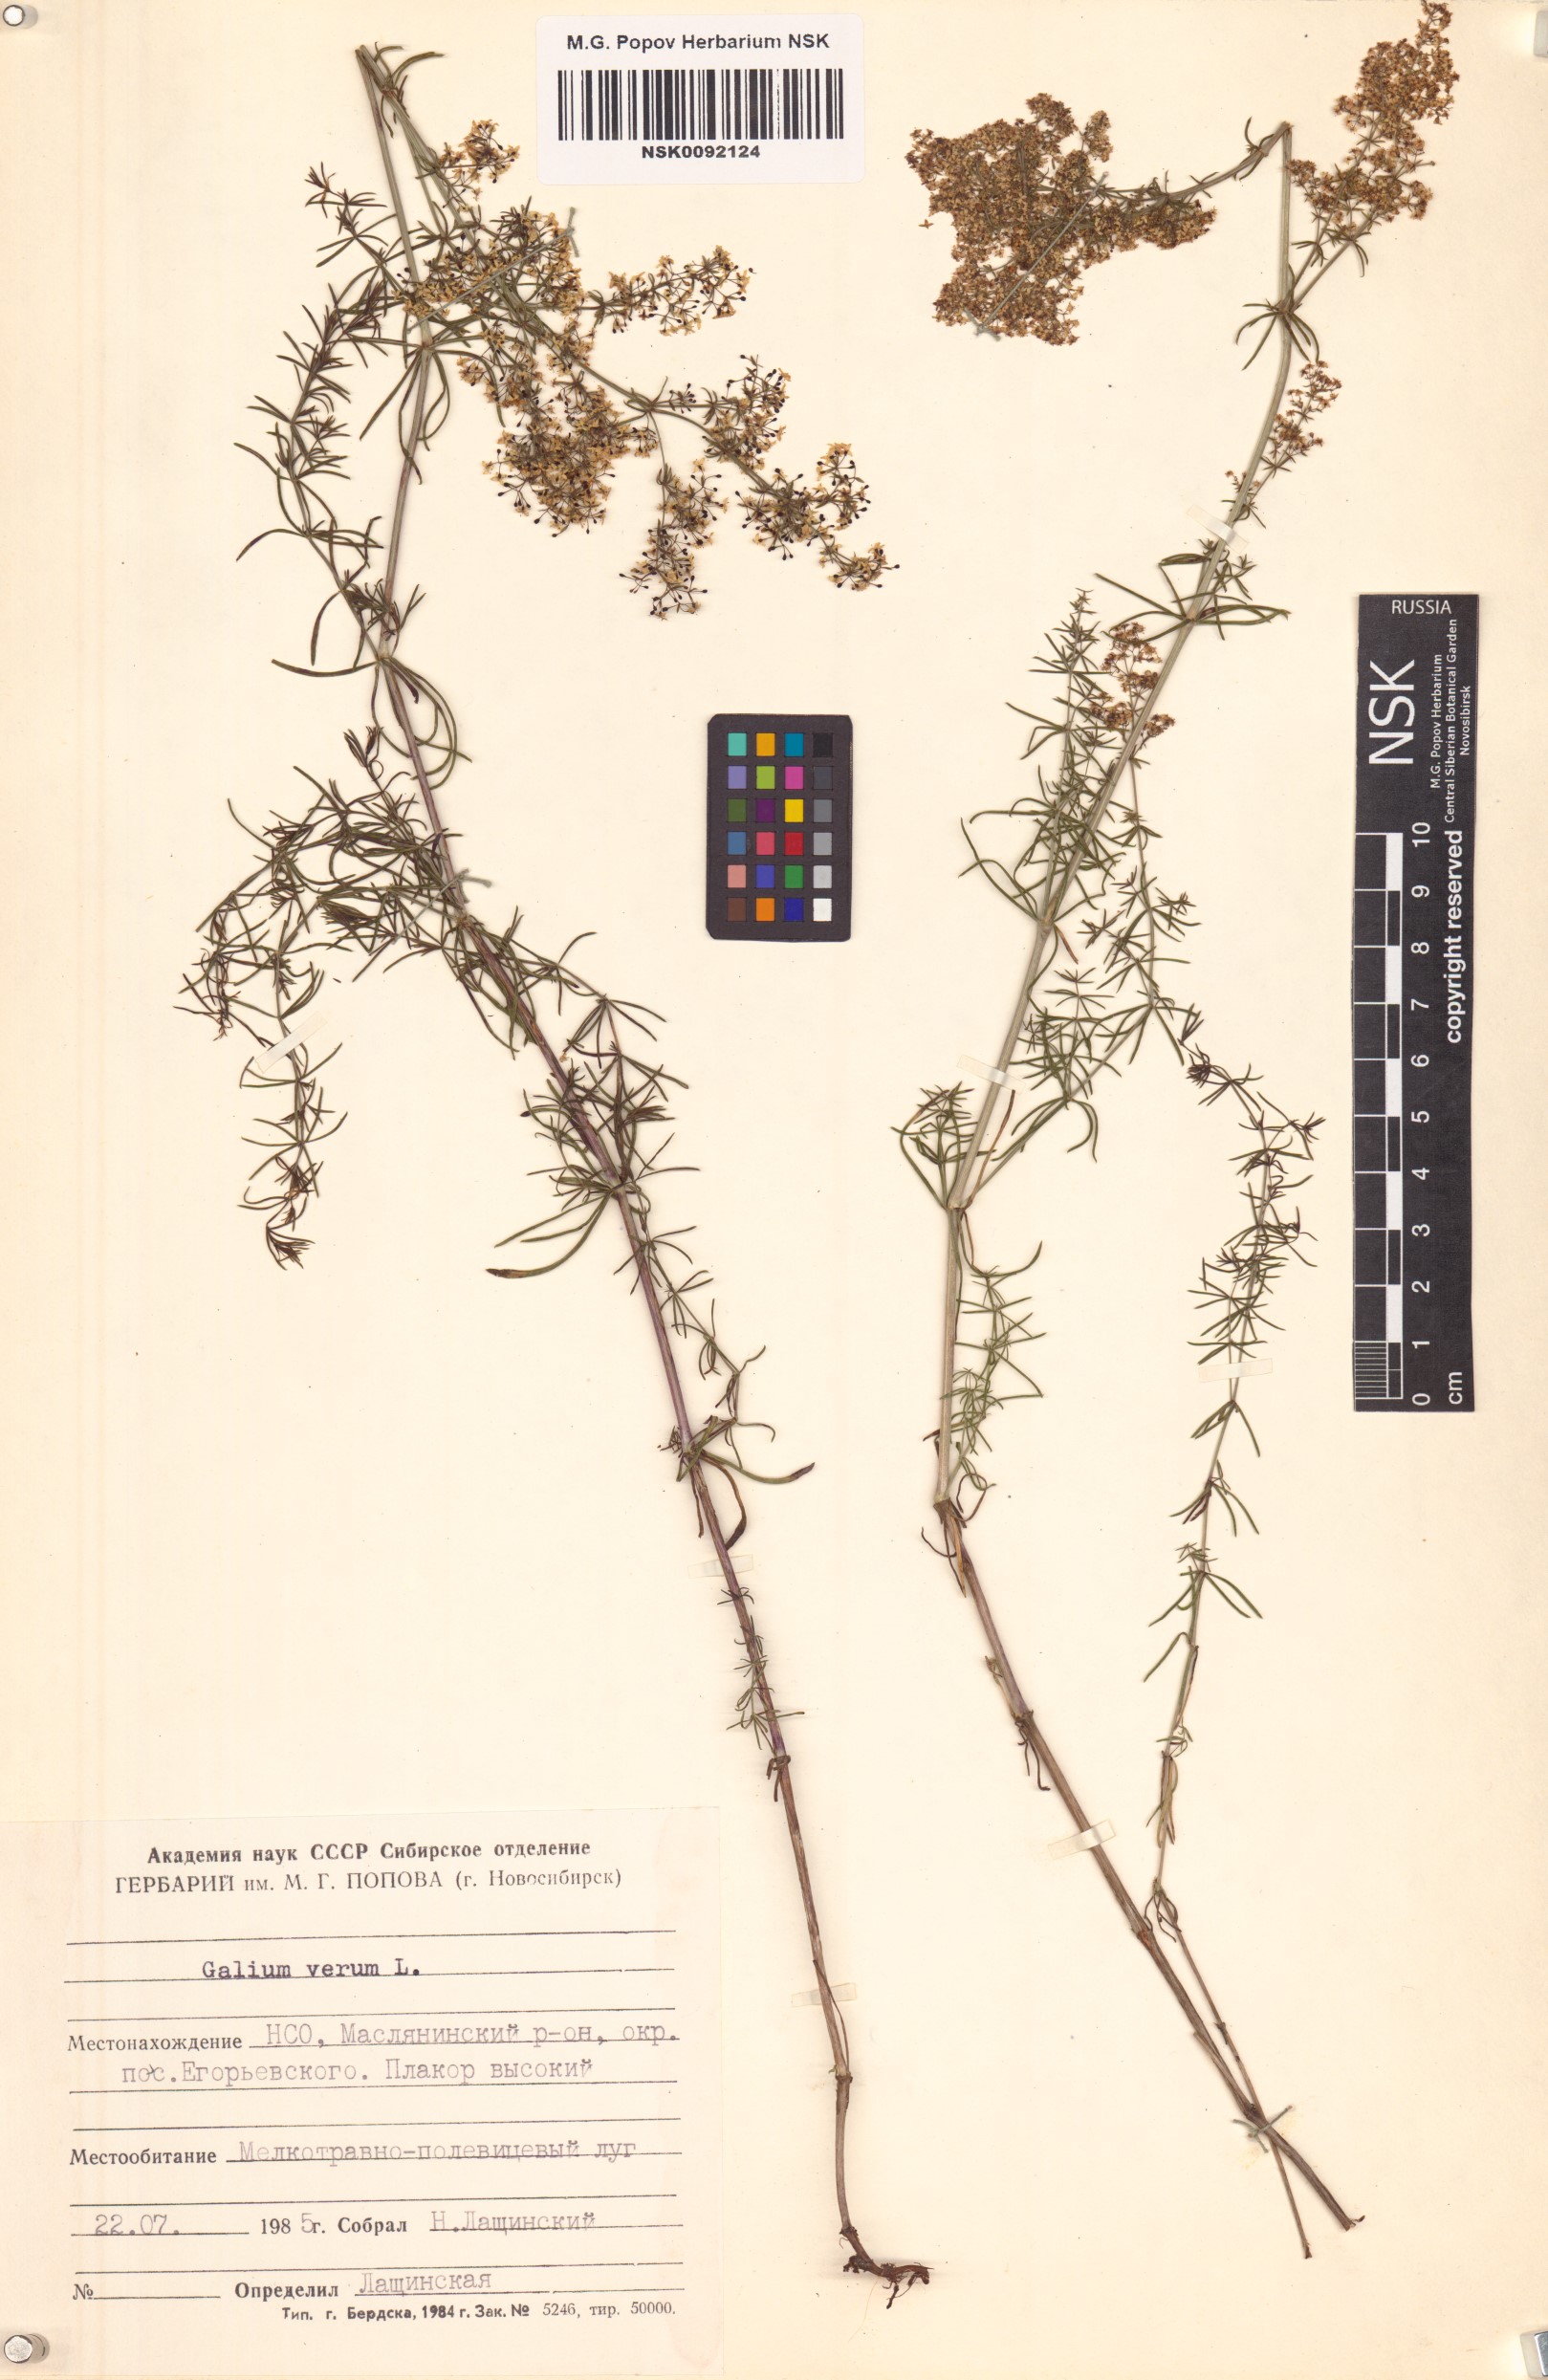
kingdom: Plantae
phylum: Tracheophyta
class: Magnoliopsida
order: Gentianales
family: Rubiaceae
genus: Galium
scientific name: Galium verum
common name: Lady's bedstraw
